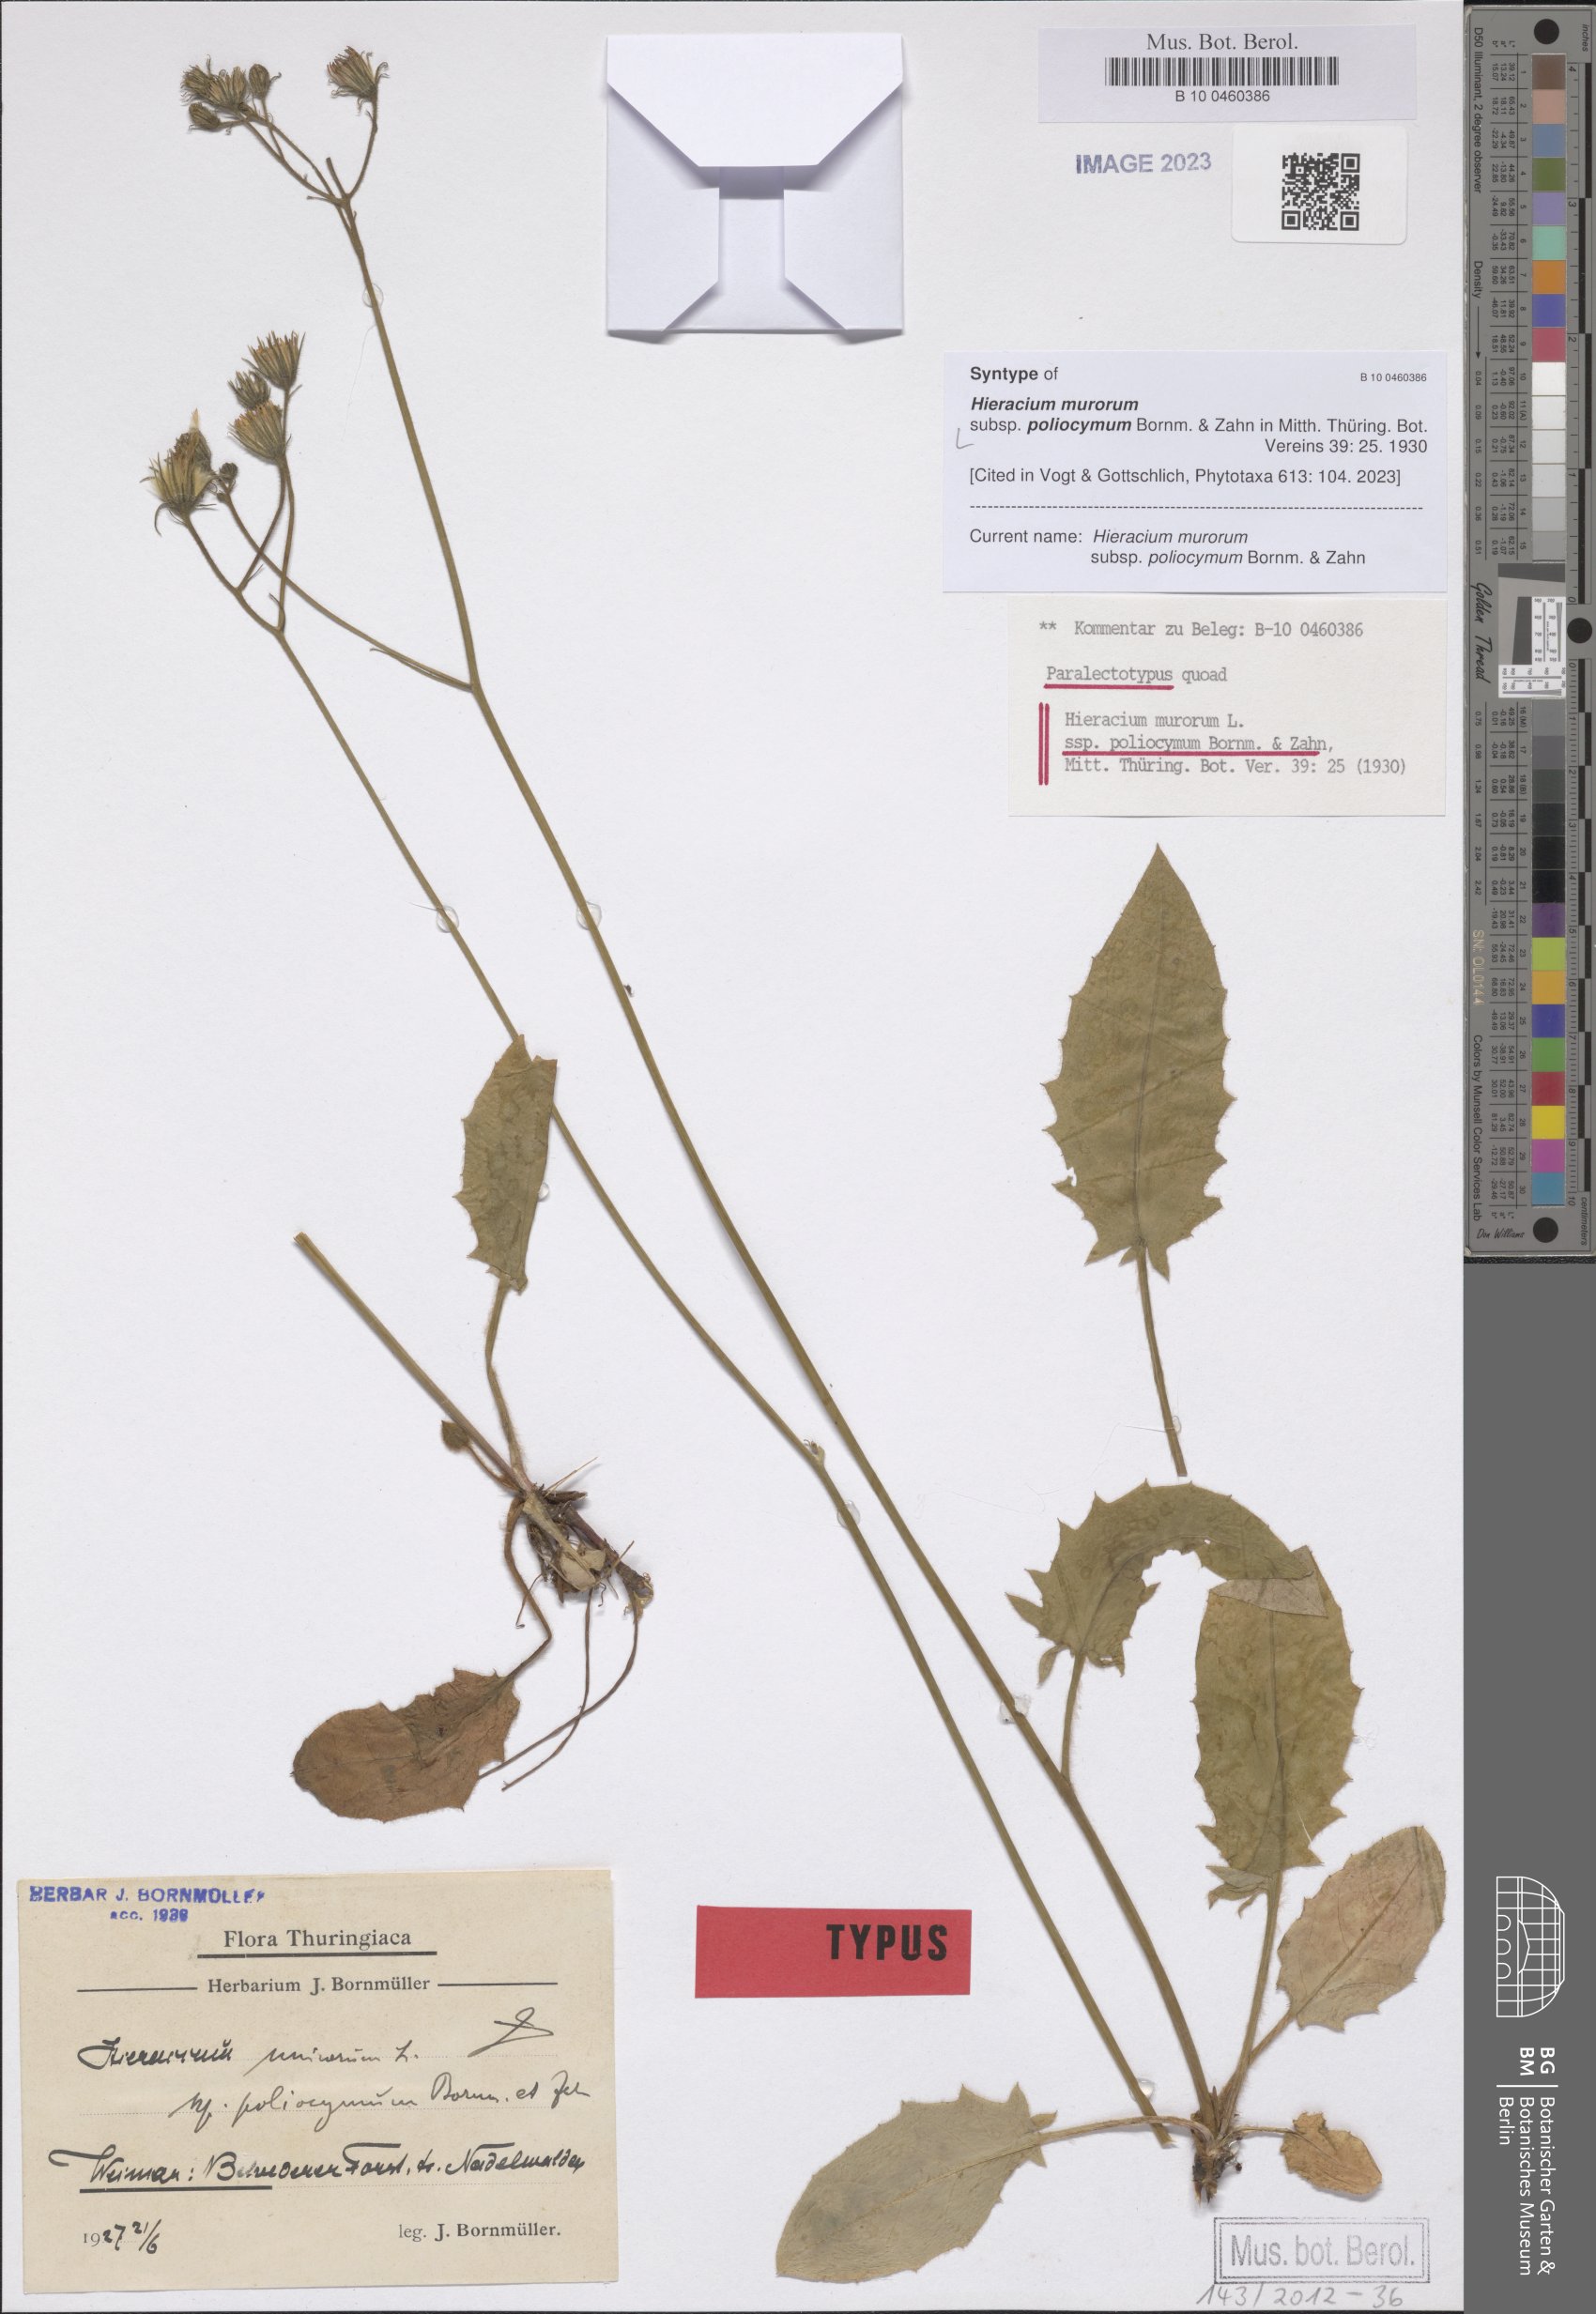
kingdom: Plantae
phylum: Tracheophyta
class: Magnoliopsida
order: Asterales
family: Asteraceae
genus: Hieracium
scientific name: Hieracium murorum
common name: Wall hawkweed
